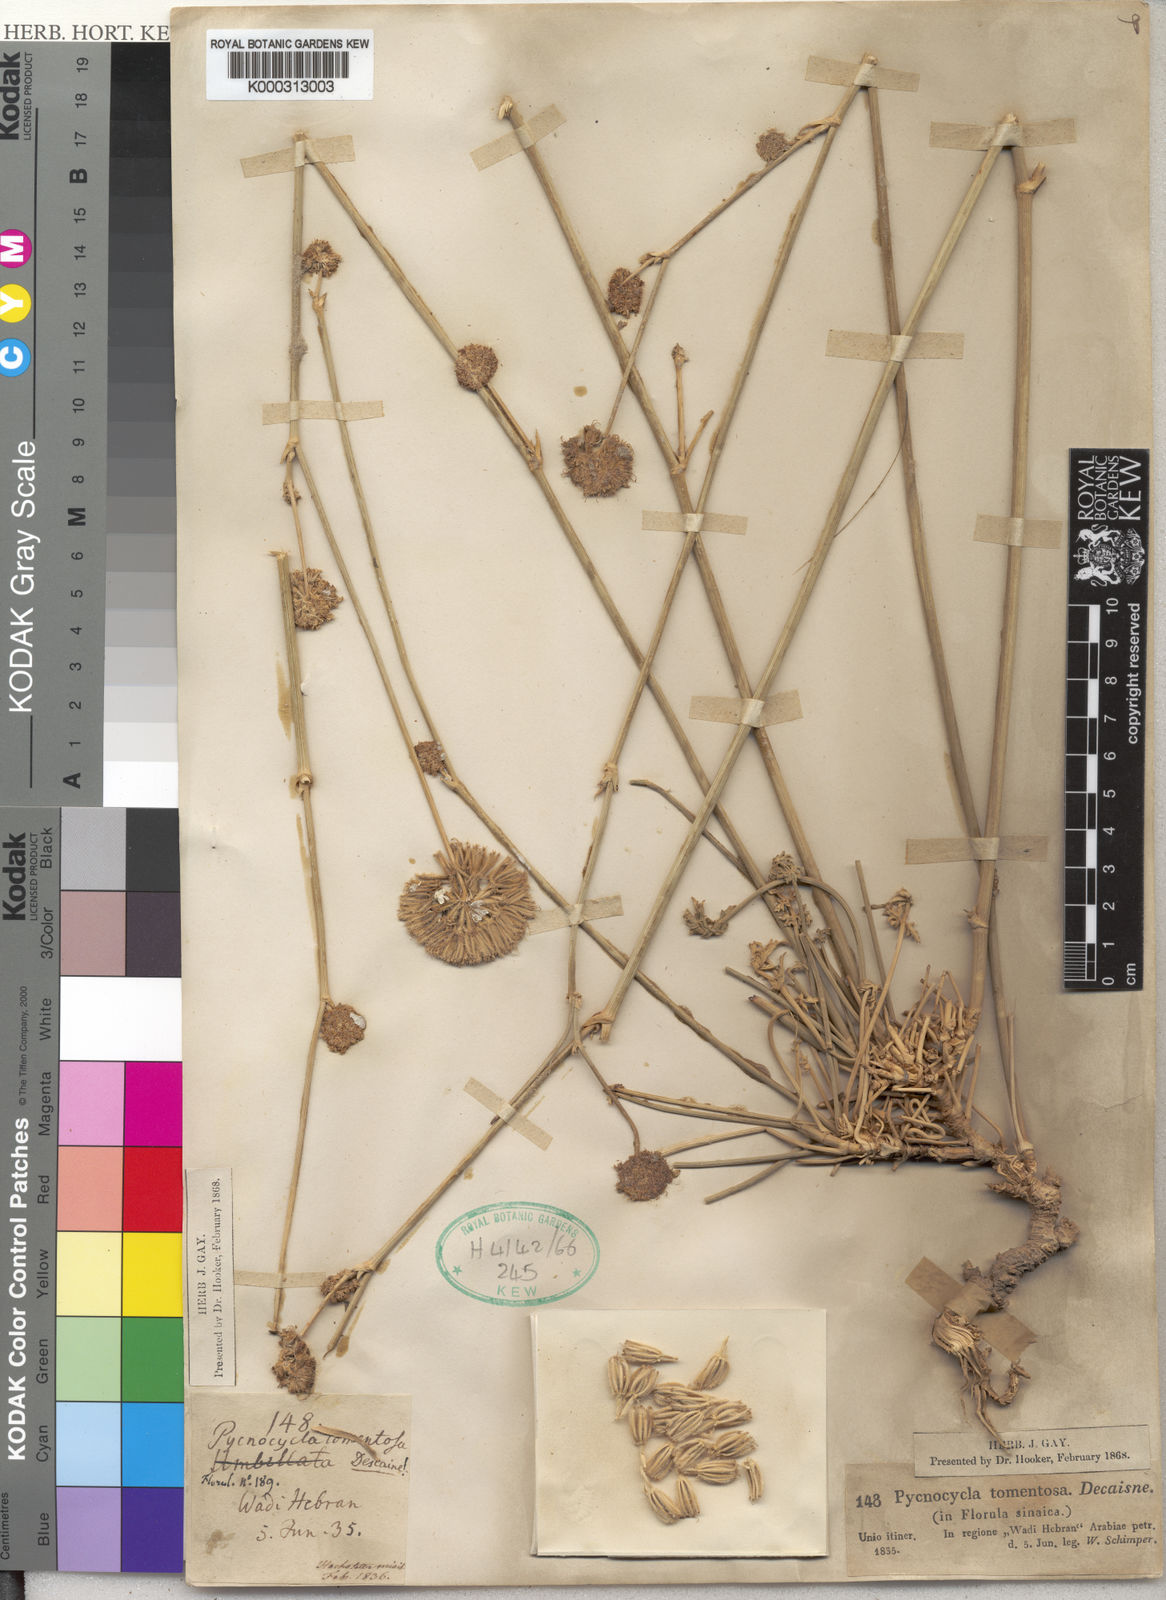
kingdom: Plantae
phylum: Tracheophyta
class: Magnoliopsida
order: Apiales
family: Apiaceae
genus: Pycnocycla
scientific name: Pycnocycla tomentosa
